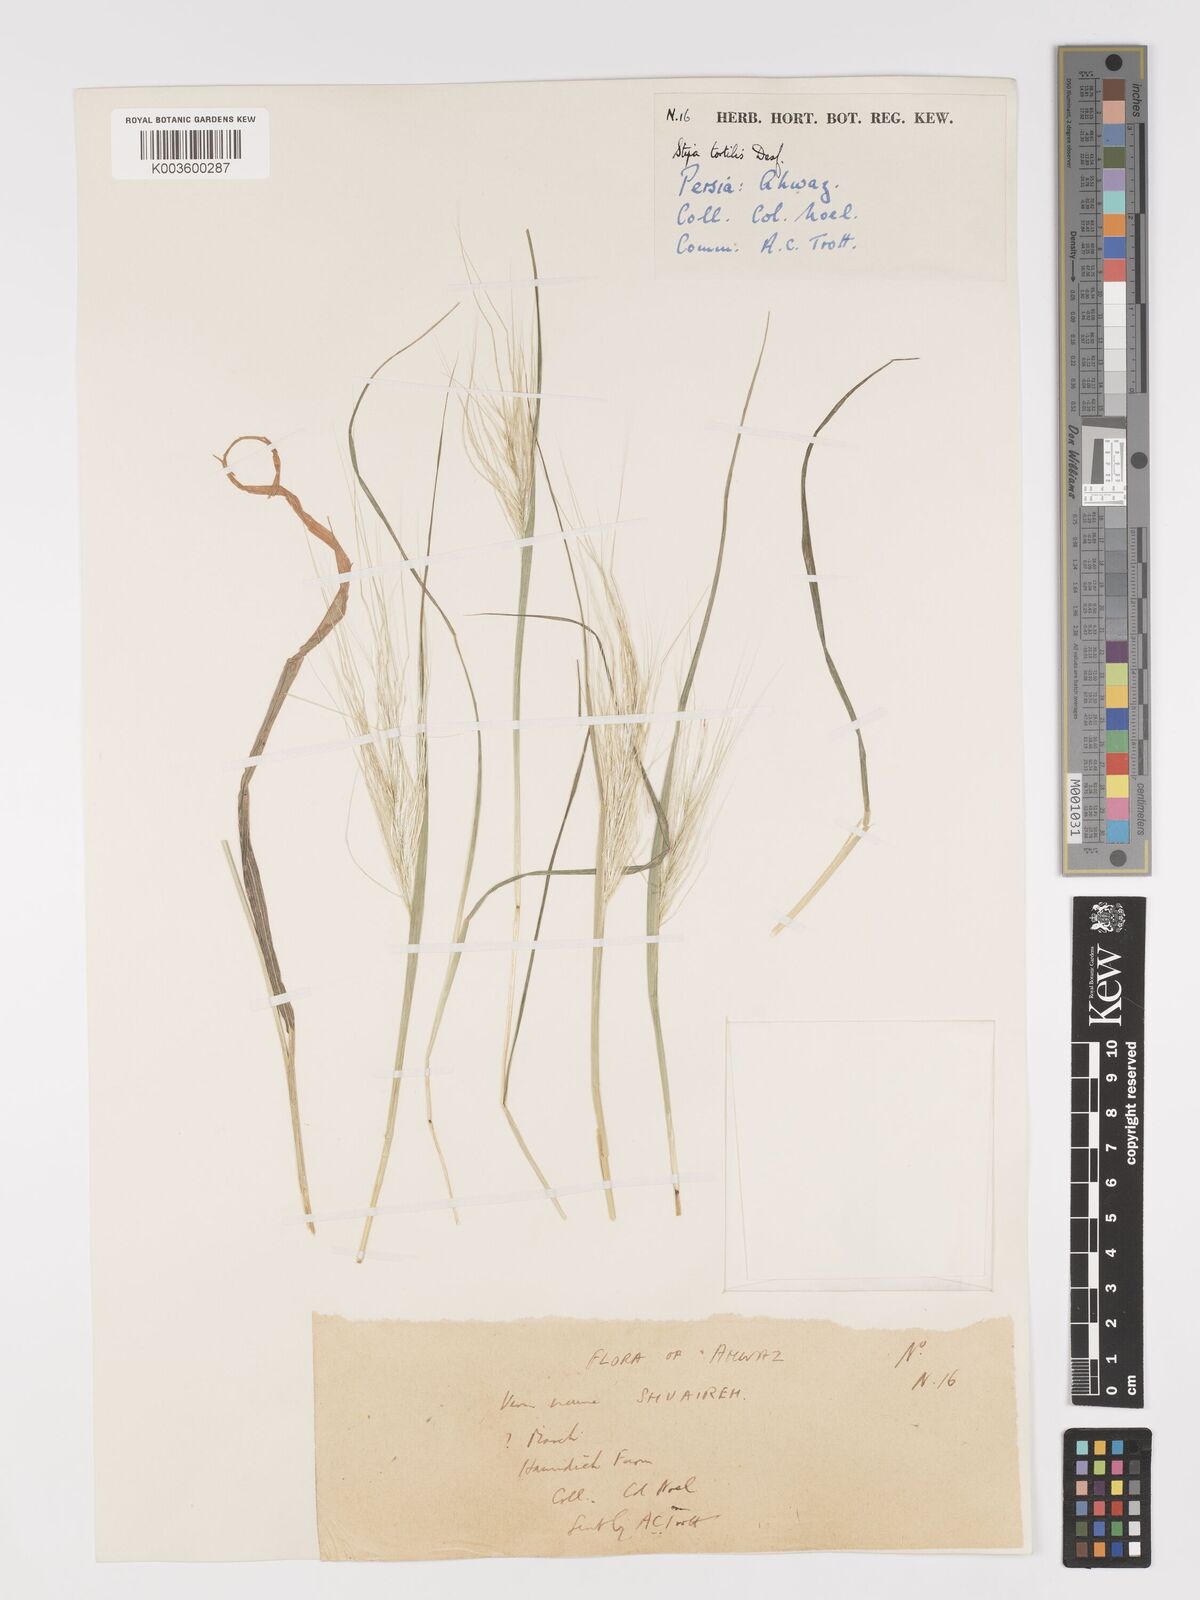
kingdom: Plantae
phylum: Tracheophyta
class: Liliopsida
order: Poales
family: Poaceae
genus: Stipellula
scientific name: Stipellula capensis
